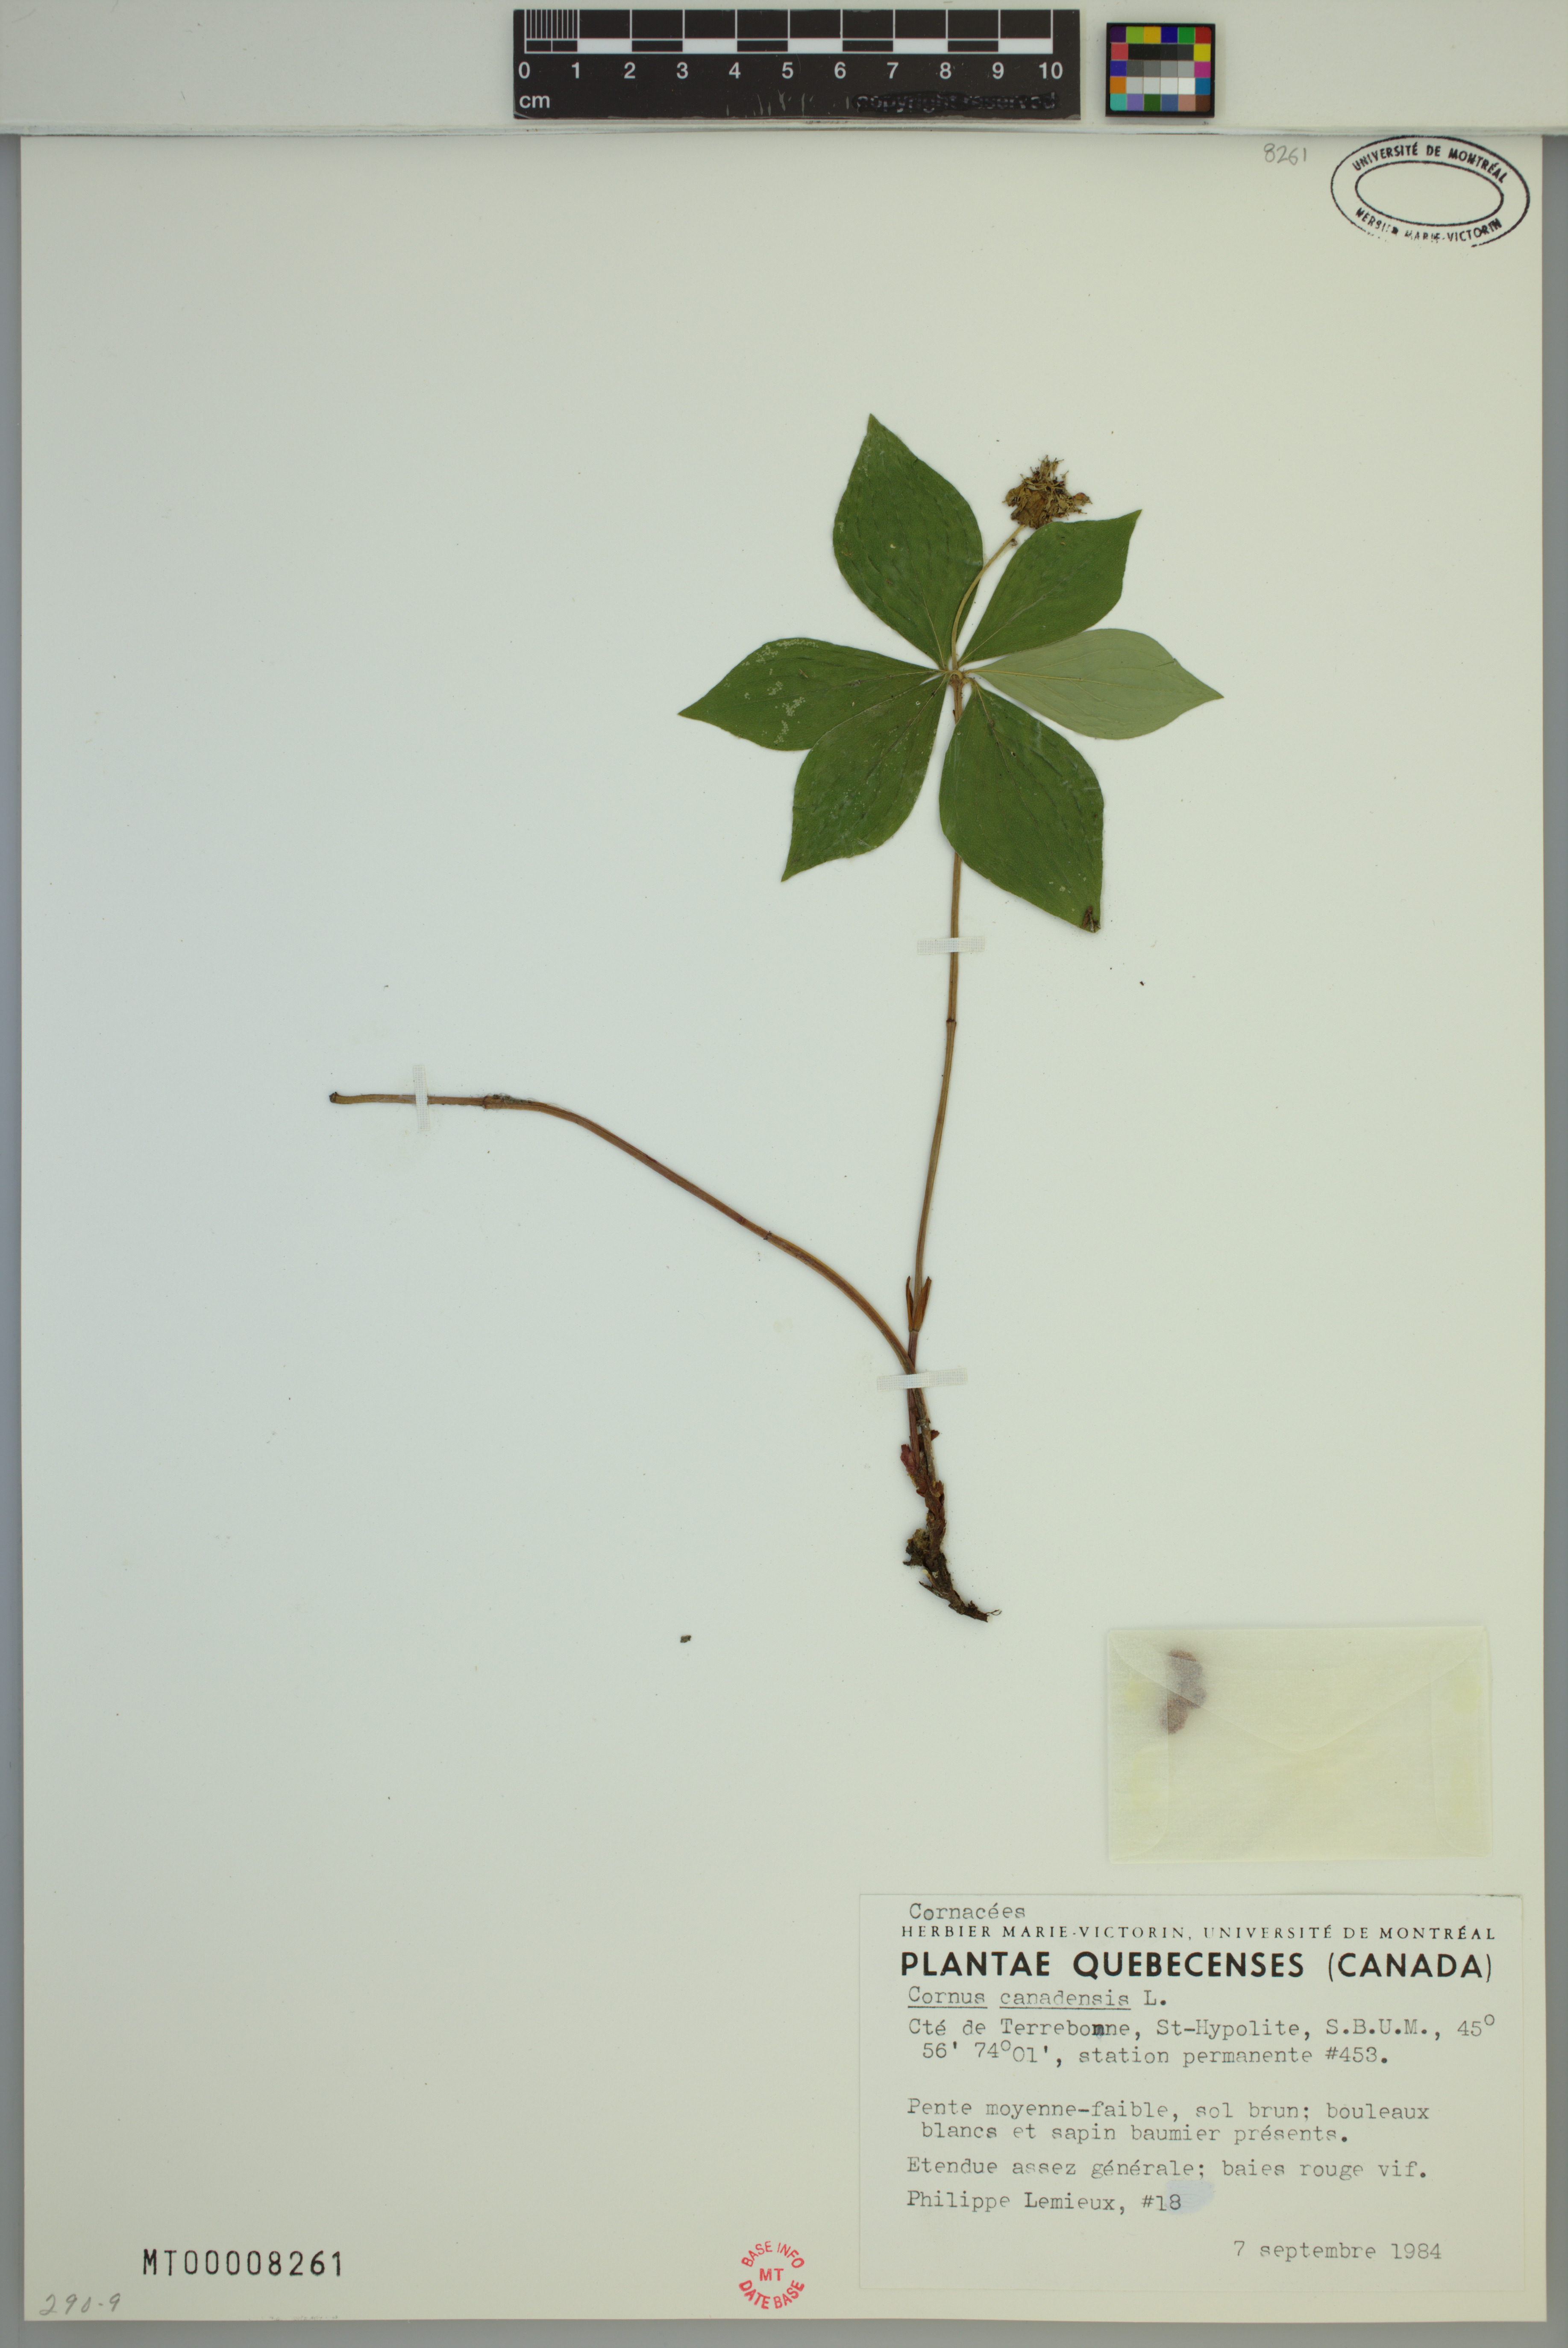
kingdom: Plantae
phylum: Tracheophyta
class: Magnoliopsida
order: Cornales
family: Cornaceae
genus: Cornus
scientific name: Cornus canadensis
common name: Creeping dogwood
